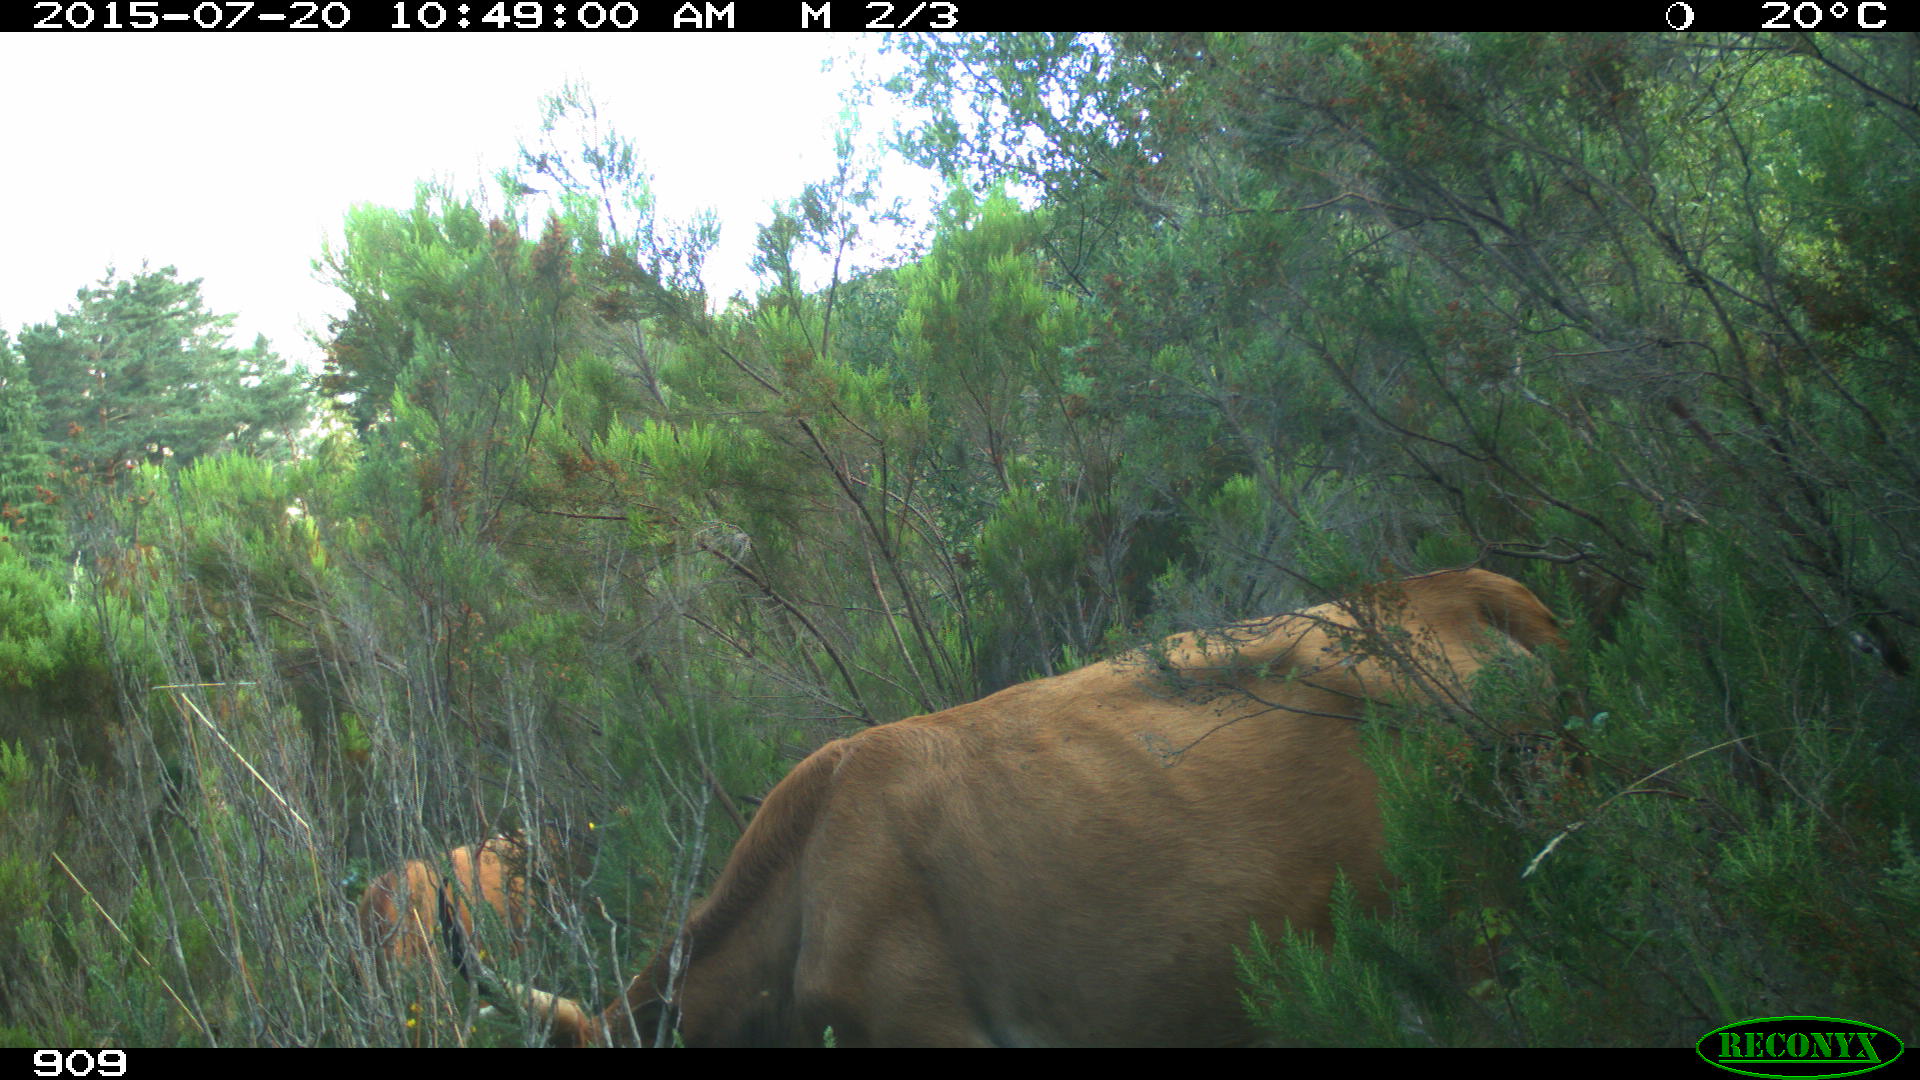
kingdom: Animalia
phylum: Chordata
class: Mammalia
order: Artiodactyla
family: Bovidae
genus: Bos
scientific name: Bos taurus
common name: Domesticated cattle
